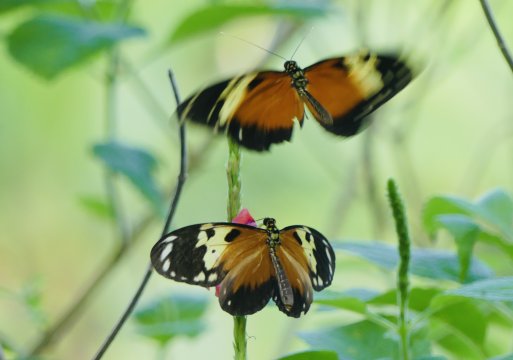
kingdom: Animalia
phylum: Arthropoda
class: Insecta
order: Lepidoptera
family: Nymphalidae
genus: Heliconius
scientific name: Heliconius hecale
